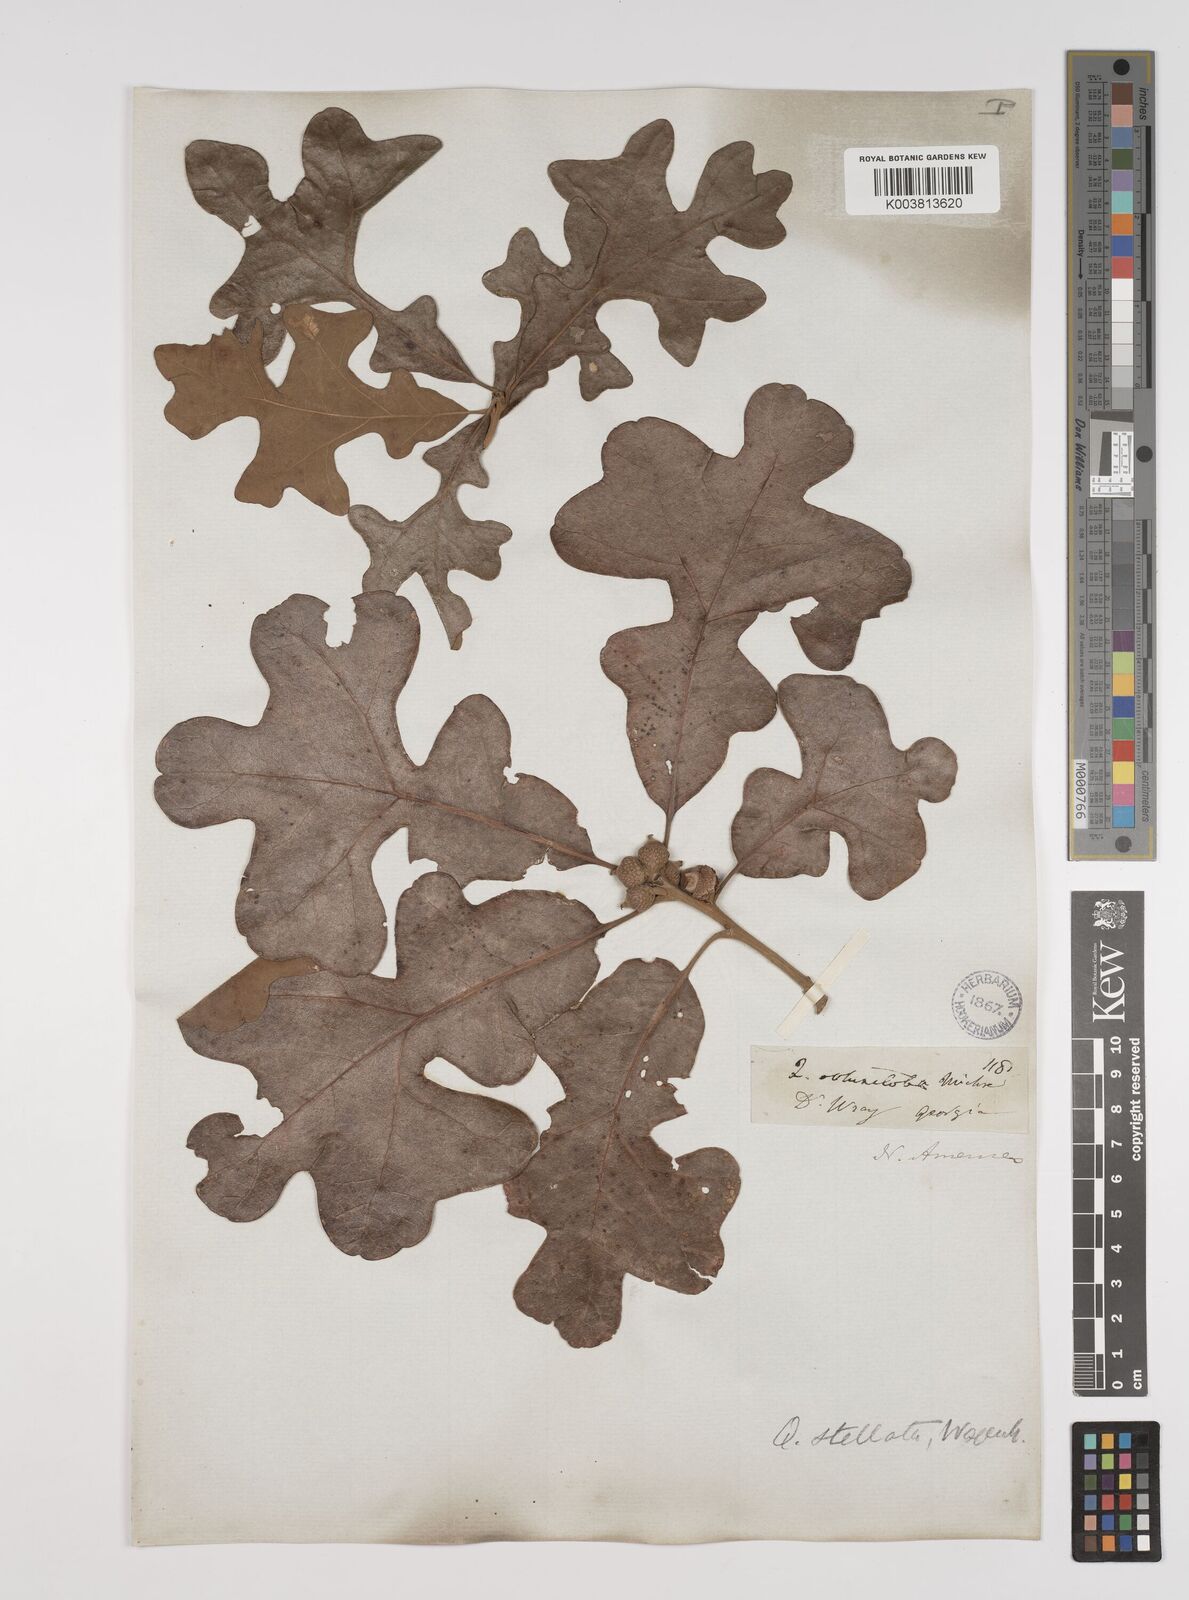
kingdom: Plantae
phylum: Tracheophyta
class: Magnoliopsida
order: Fagales
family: Fagaceae
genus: Quercus
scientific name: Quercus stellata
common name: Post oak
